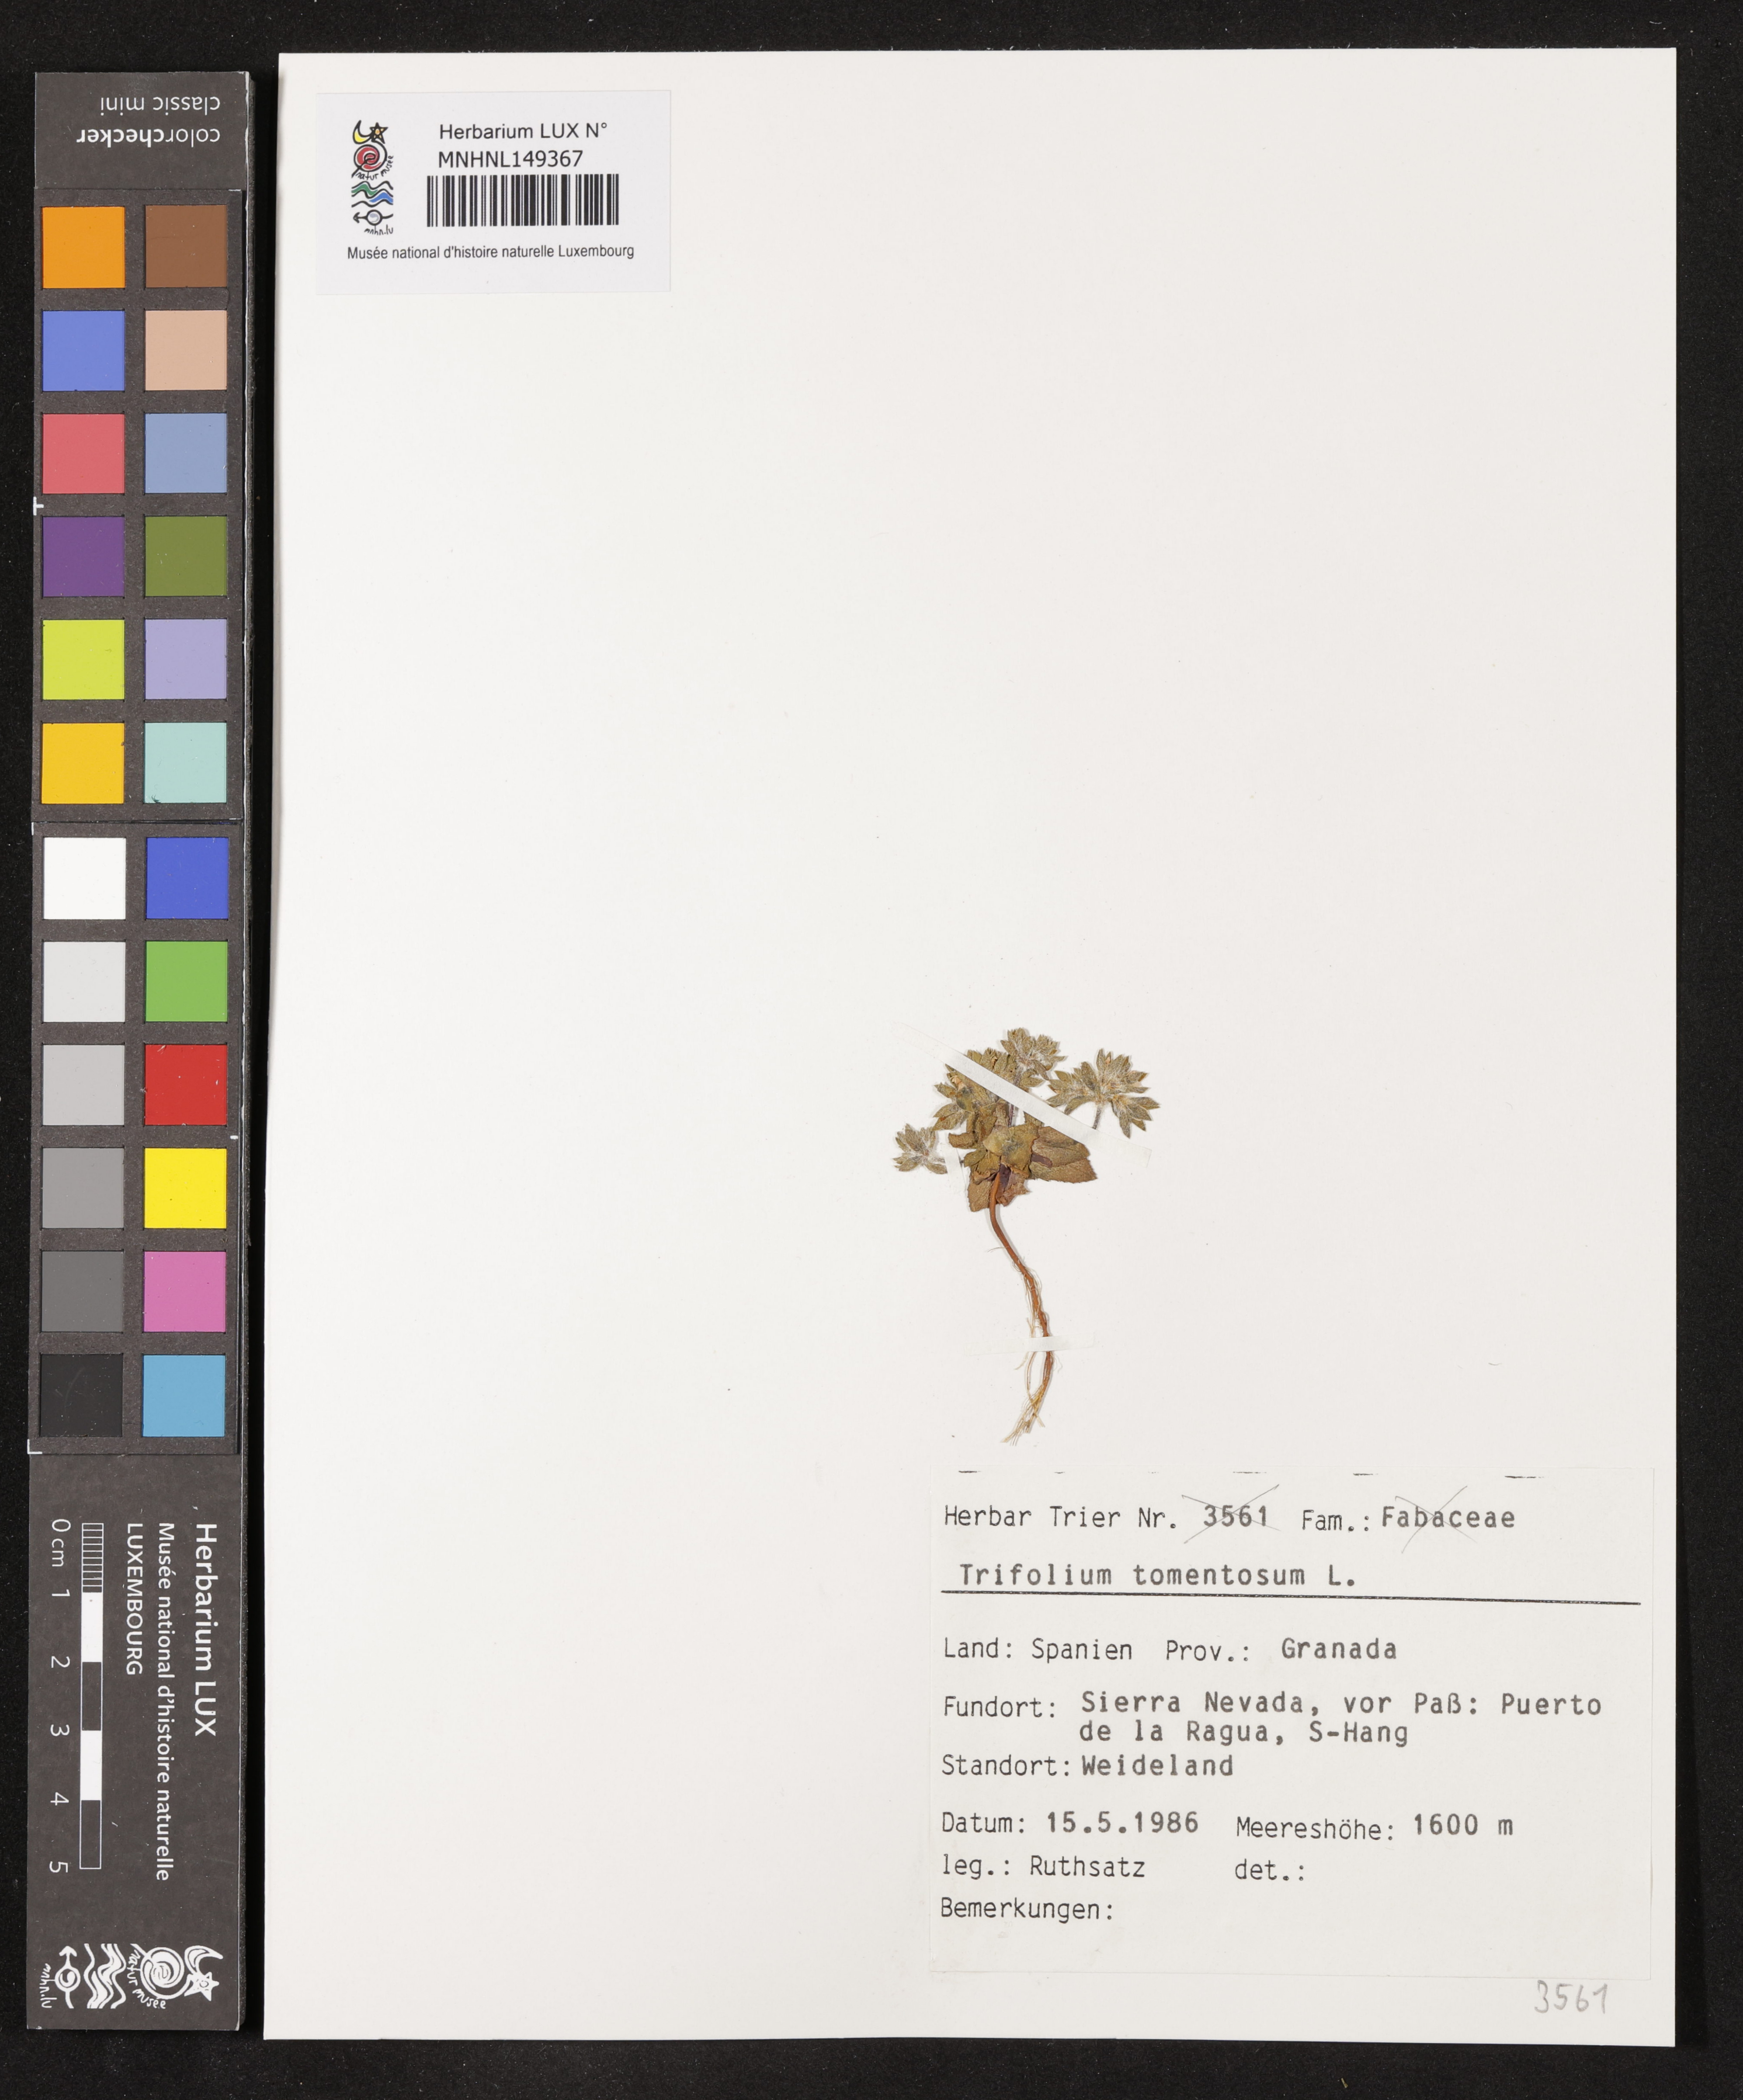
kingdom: Plantae
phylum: Tracheophyta
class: Magnoliopsida
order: Fabales
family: Fabaceae
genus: Trifolium
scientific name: Trifolium tomentosum
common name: Woolly clover
